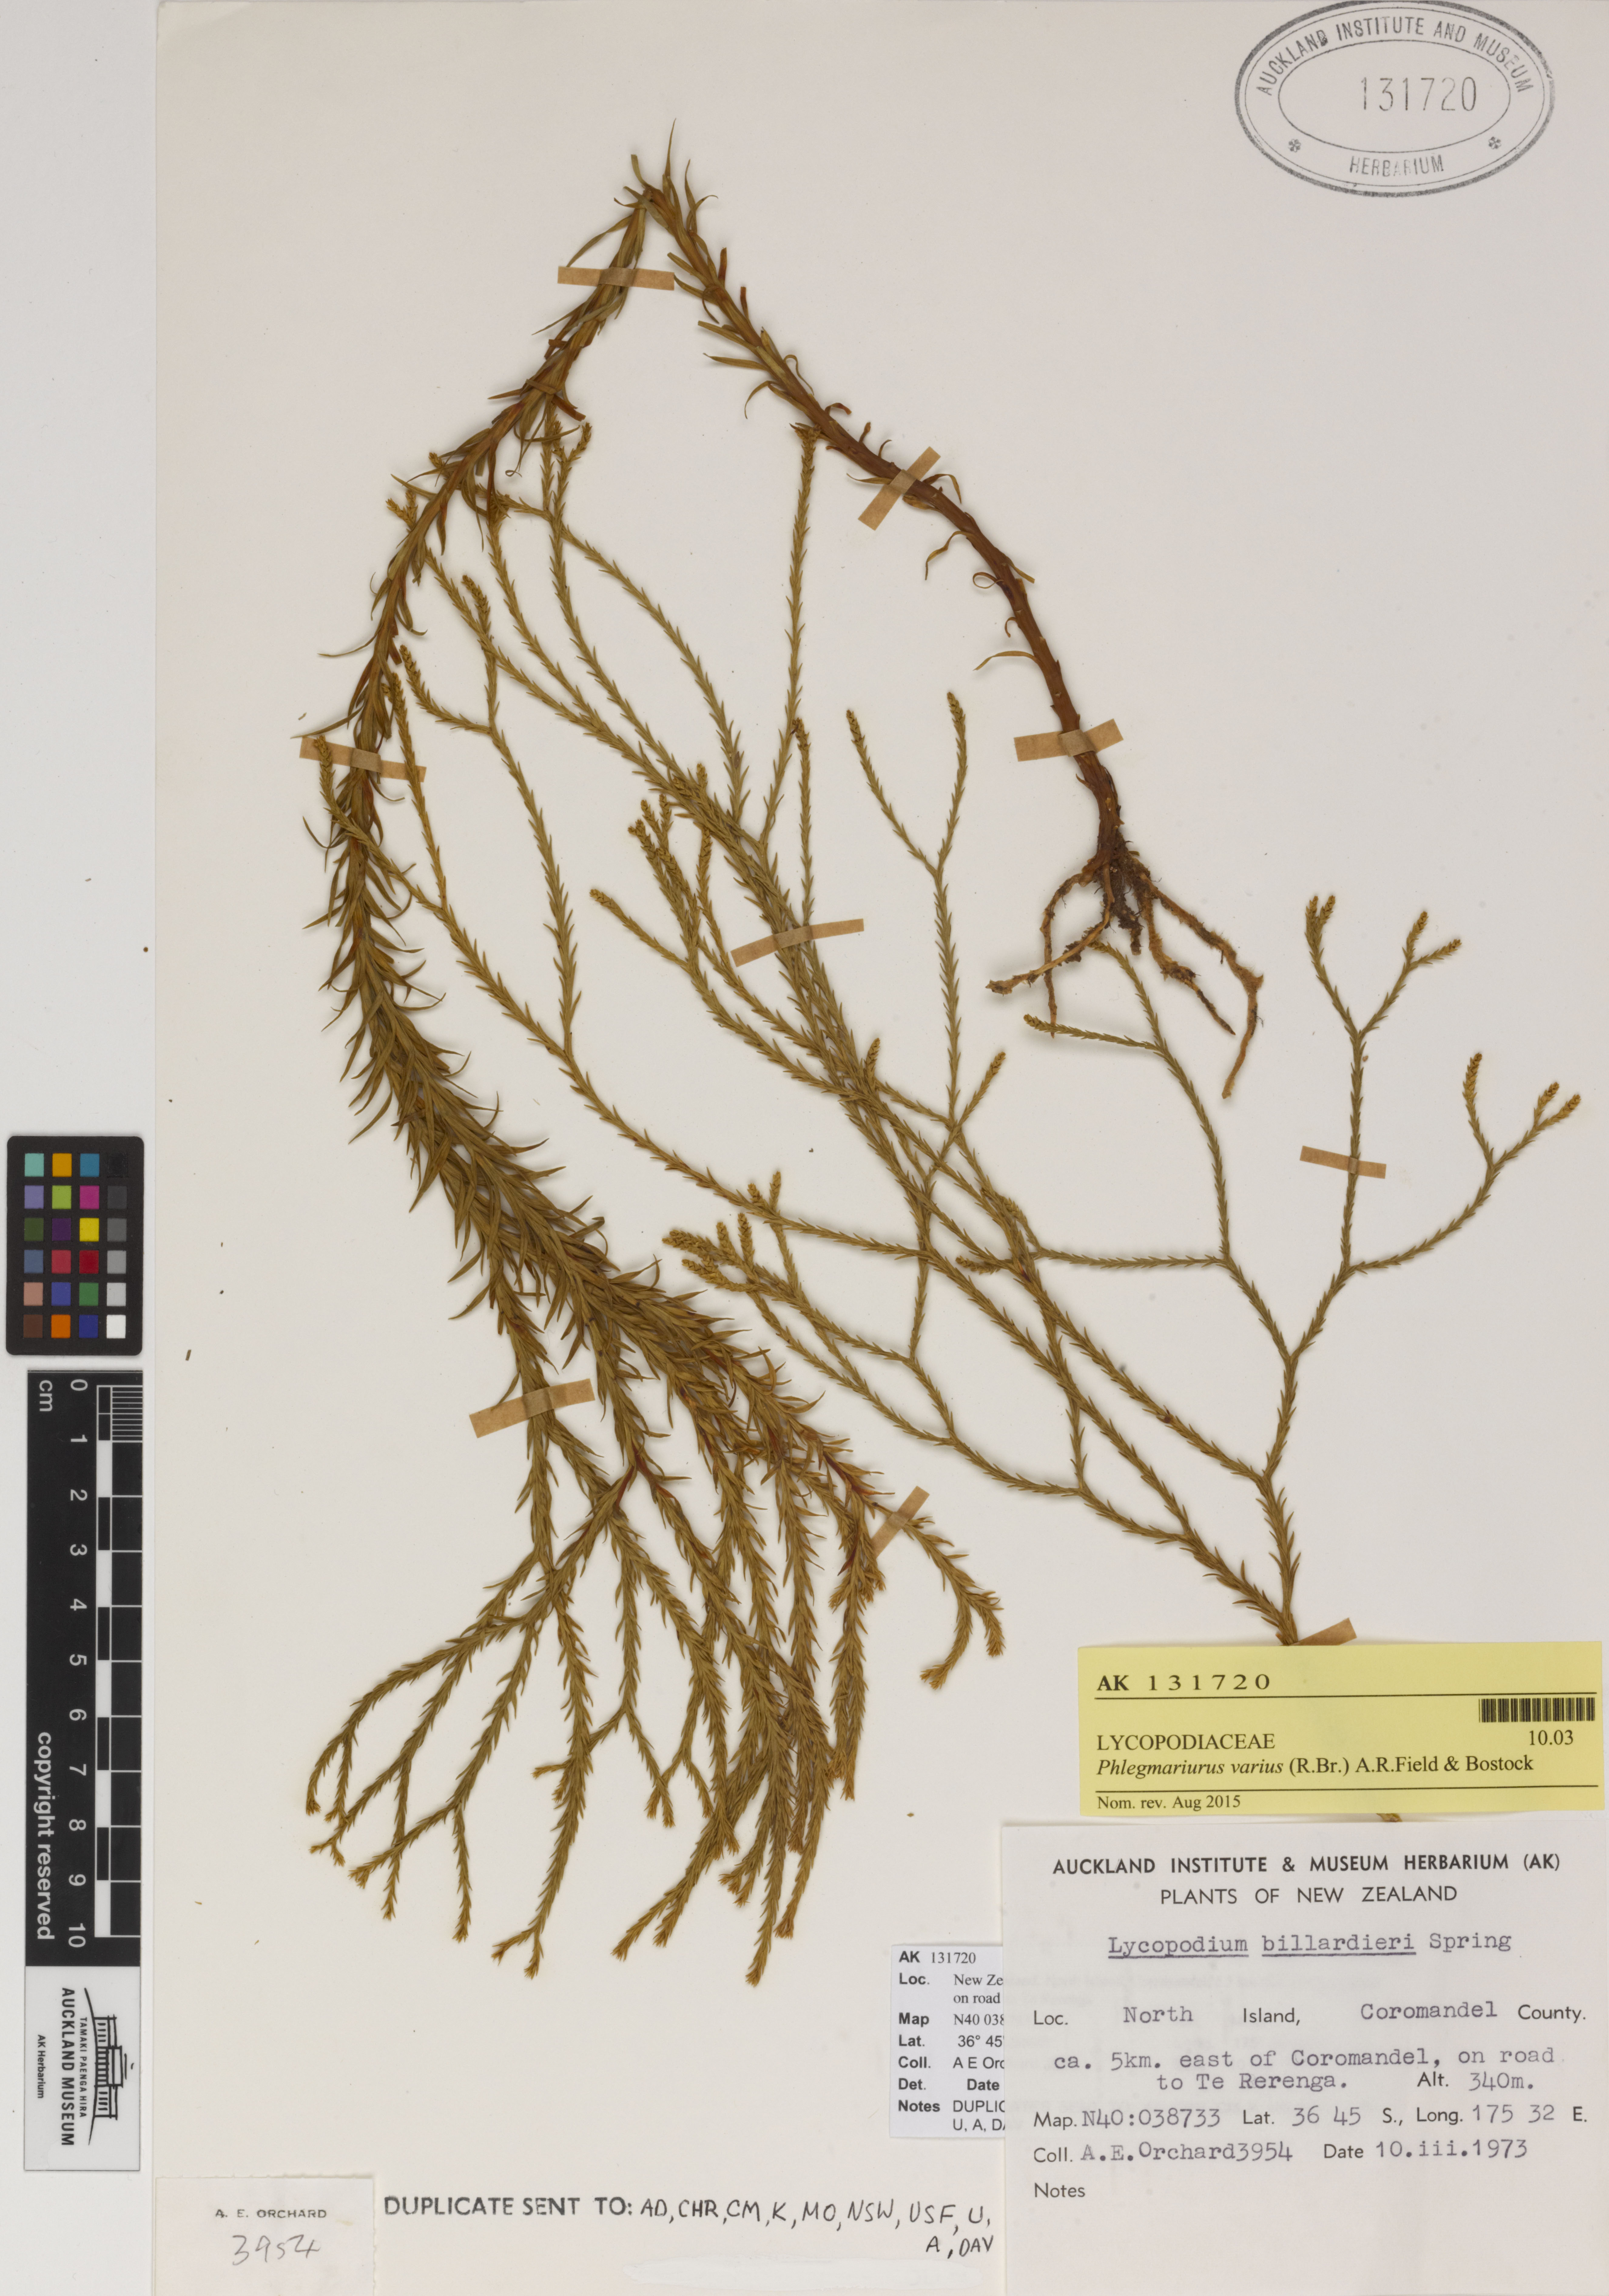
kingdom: Plantae
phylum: Tracheophyta
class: Lycopodiopsida
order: Lycopodiales
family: Lycopodiaceae
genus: Phlegmariurus
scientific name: Phlegmariurus billardierei
